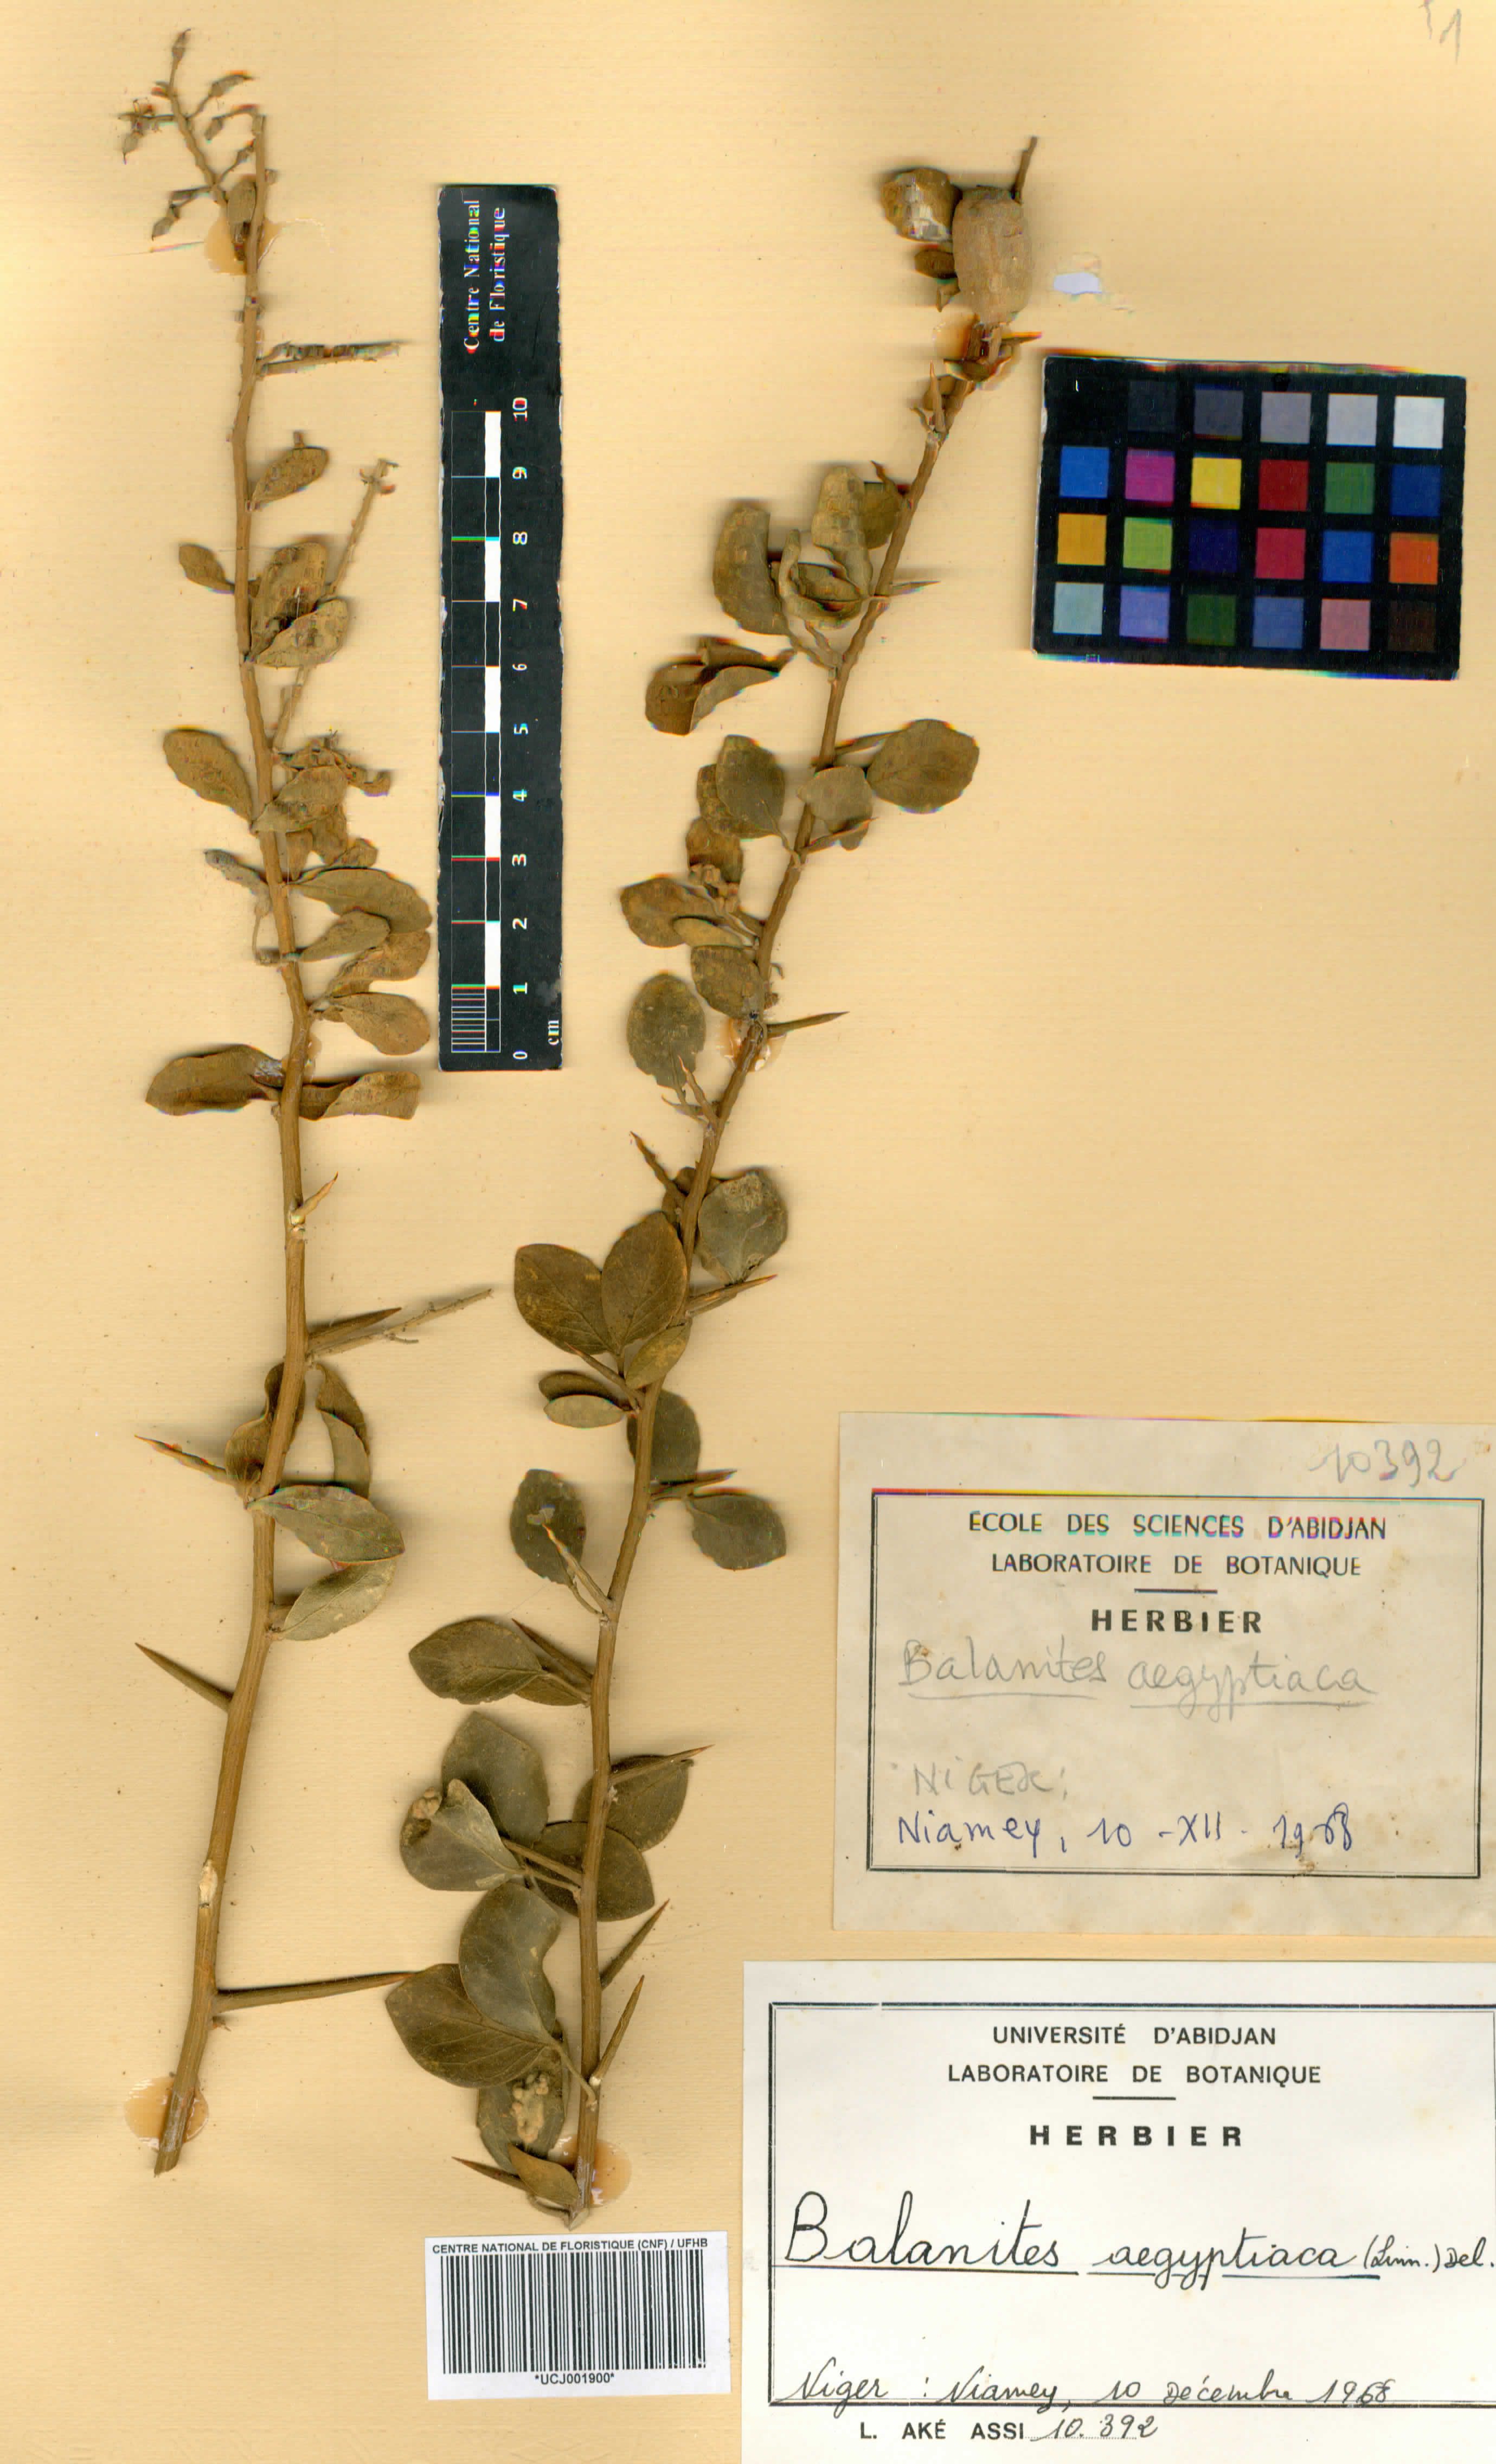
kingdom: Plantae
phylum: Tracheophyta
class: Magnoliopsida
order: Zygophyllales
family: Zygophyllaceae
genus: Balanites
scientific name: Balanites aegyptiaca
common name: Balanites
